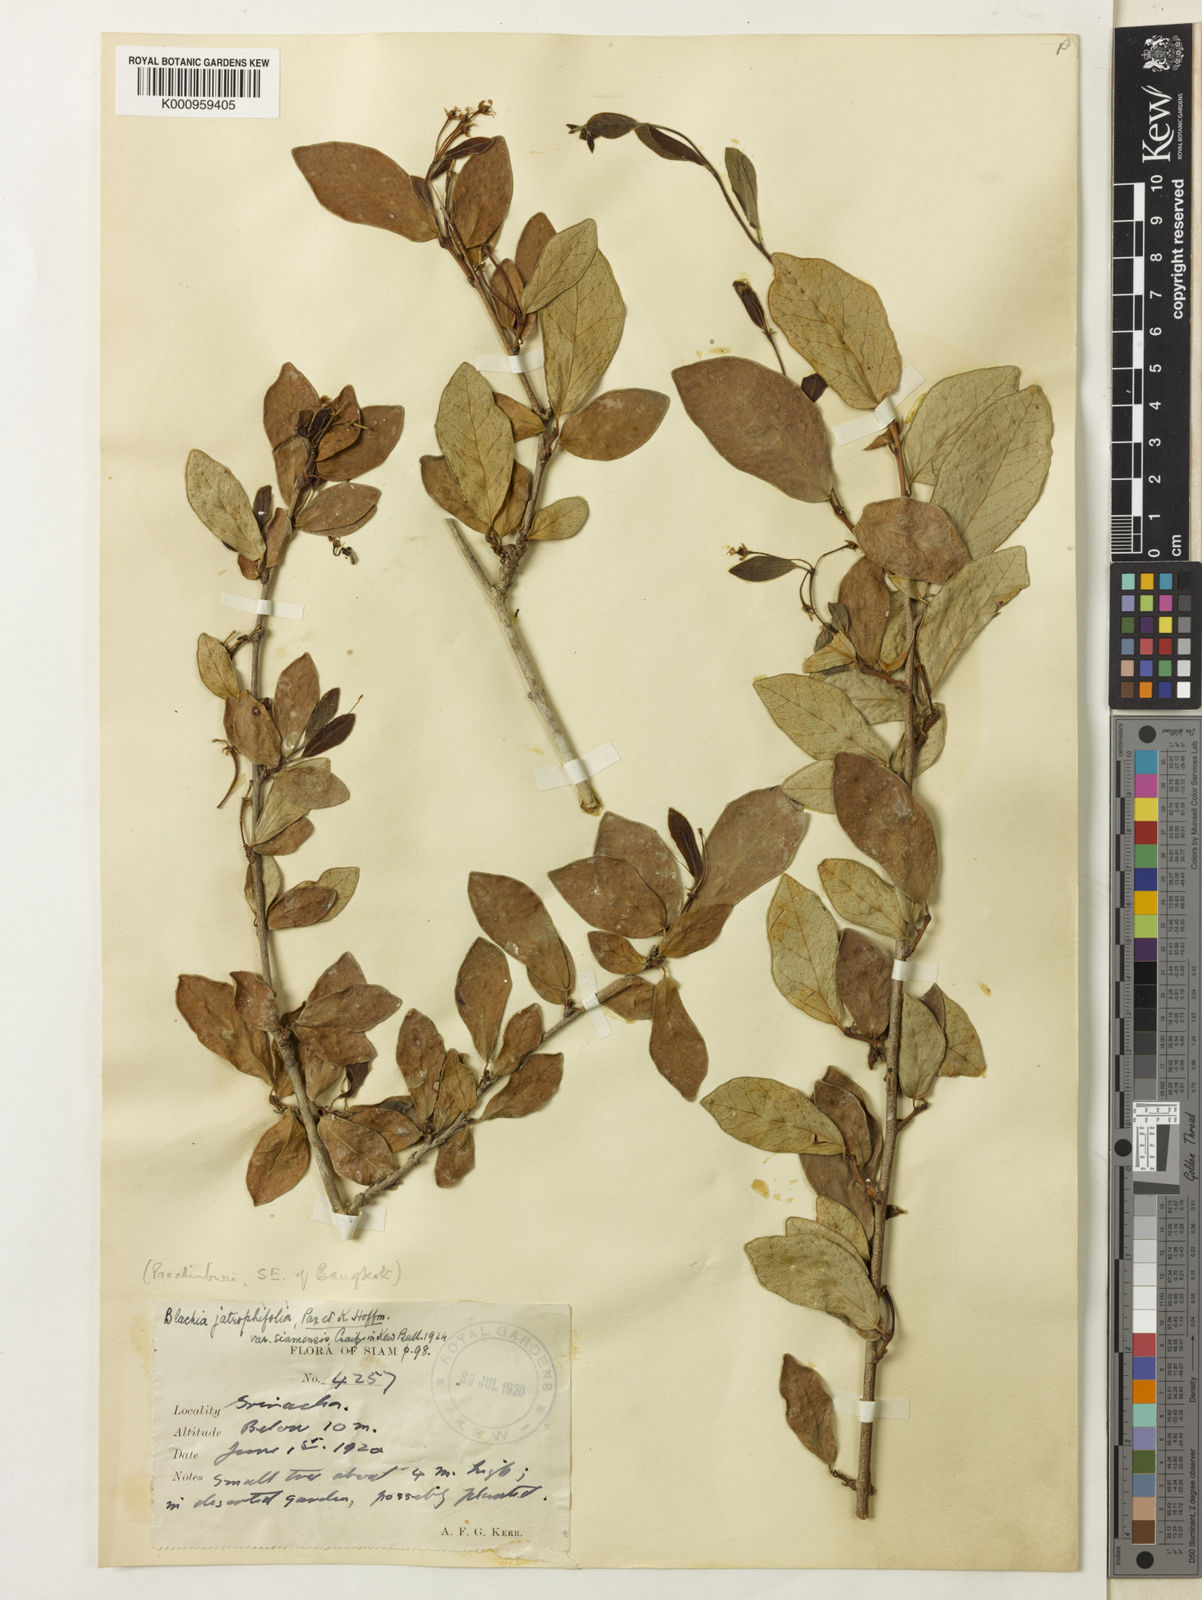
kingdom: Plantae
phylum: Tracheophyta
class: Magnoliopsida
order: Malpighiales
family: Euphorbiaceae
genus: Blachia
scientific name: Blachia siamensis
